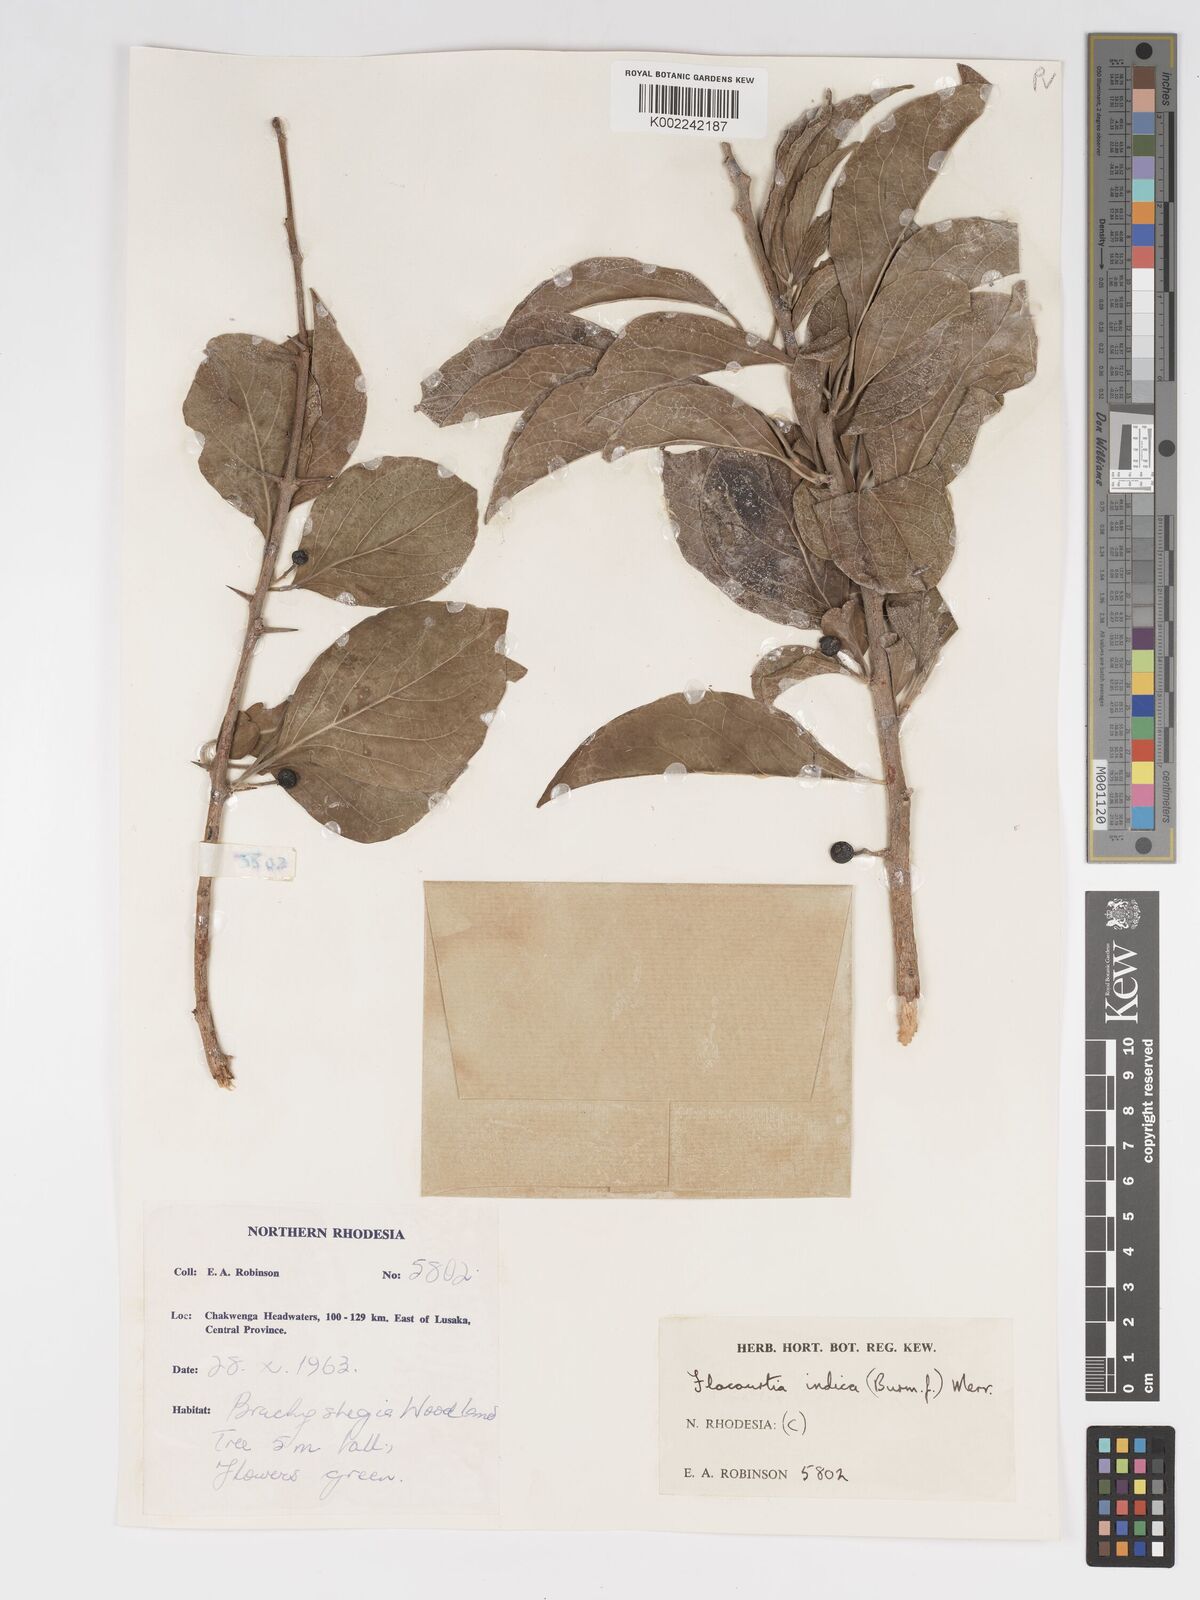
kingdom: Plantae
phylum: Tracheophyta
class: Magnoliopsida
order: Malpighiales
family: Salicaceae
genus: Flacourtia
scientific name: Flacourtia indica
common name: Governor's plum
